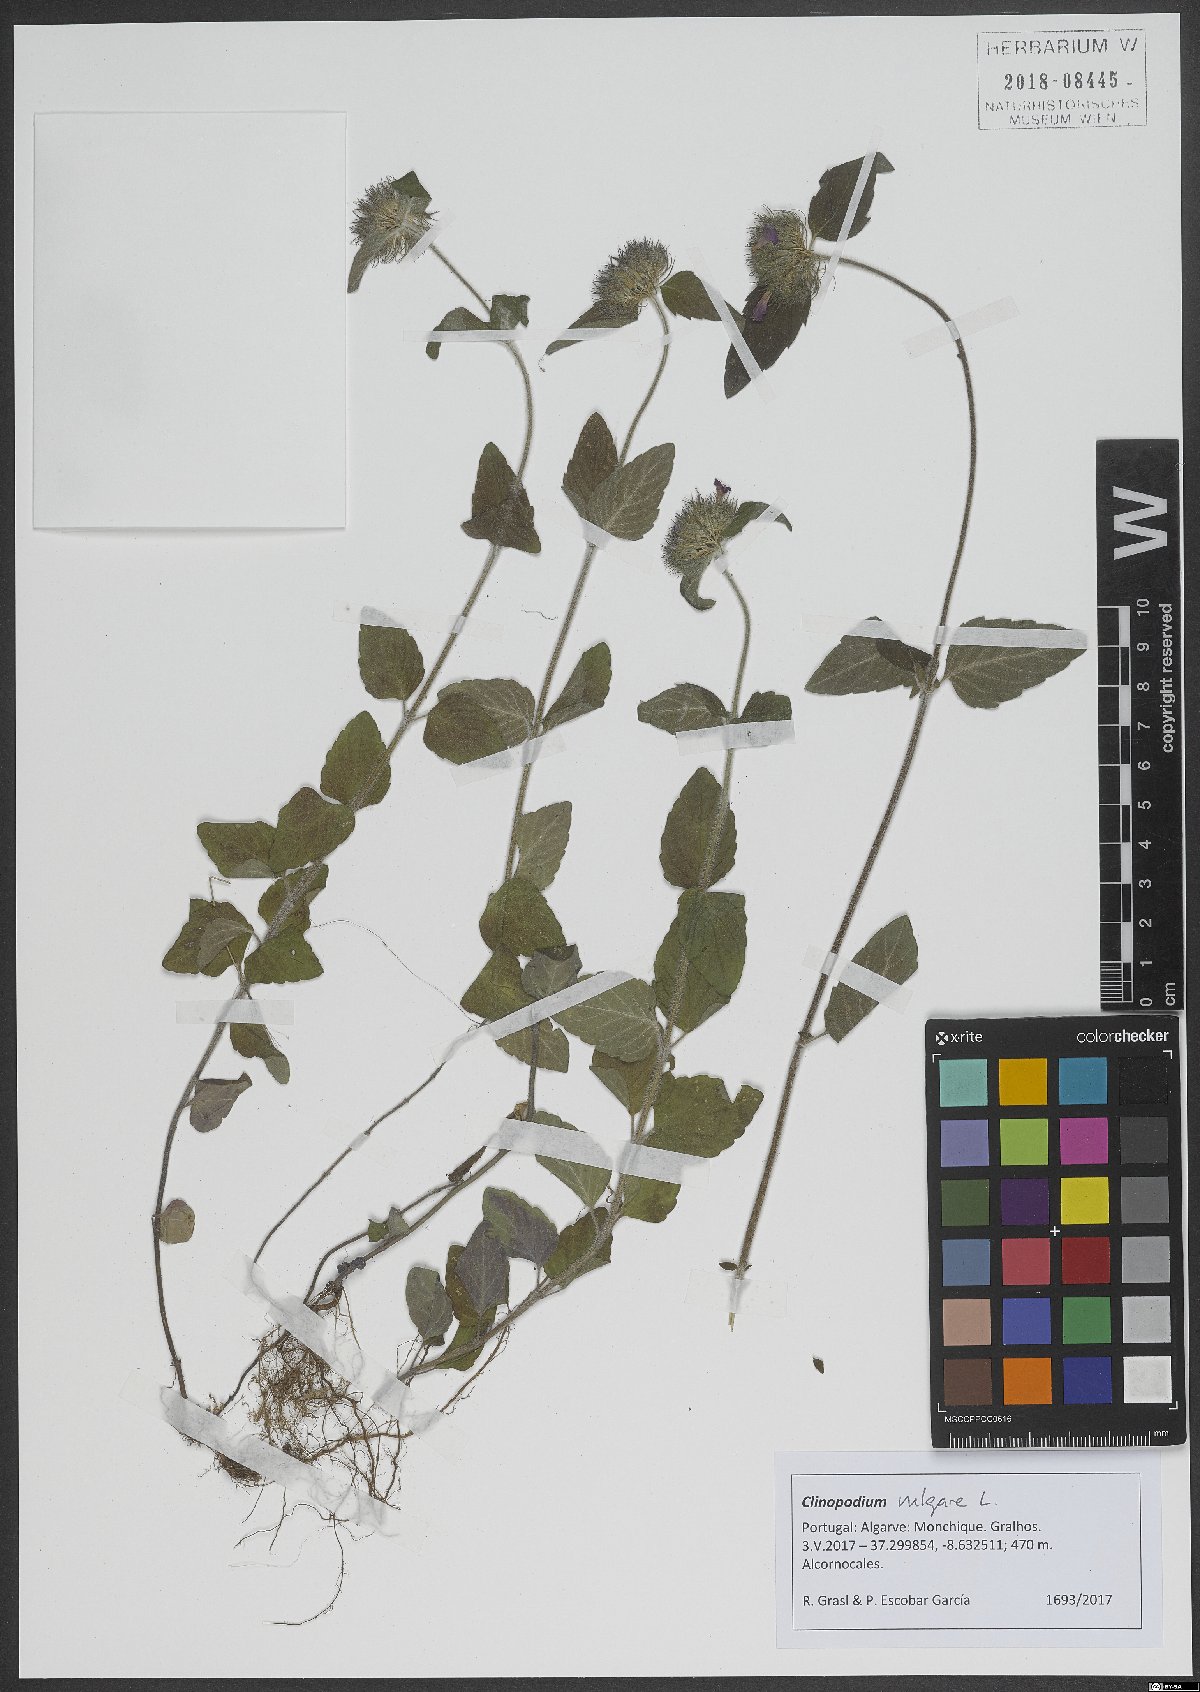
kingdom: Plantae
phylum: Tracheophyta
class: Magnoliopsida
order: Lamiales
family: Lamiaceae
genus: Clinopodium
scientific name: Clinopodium vulgare
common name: Wild basil
